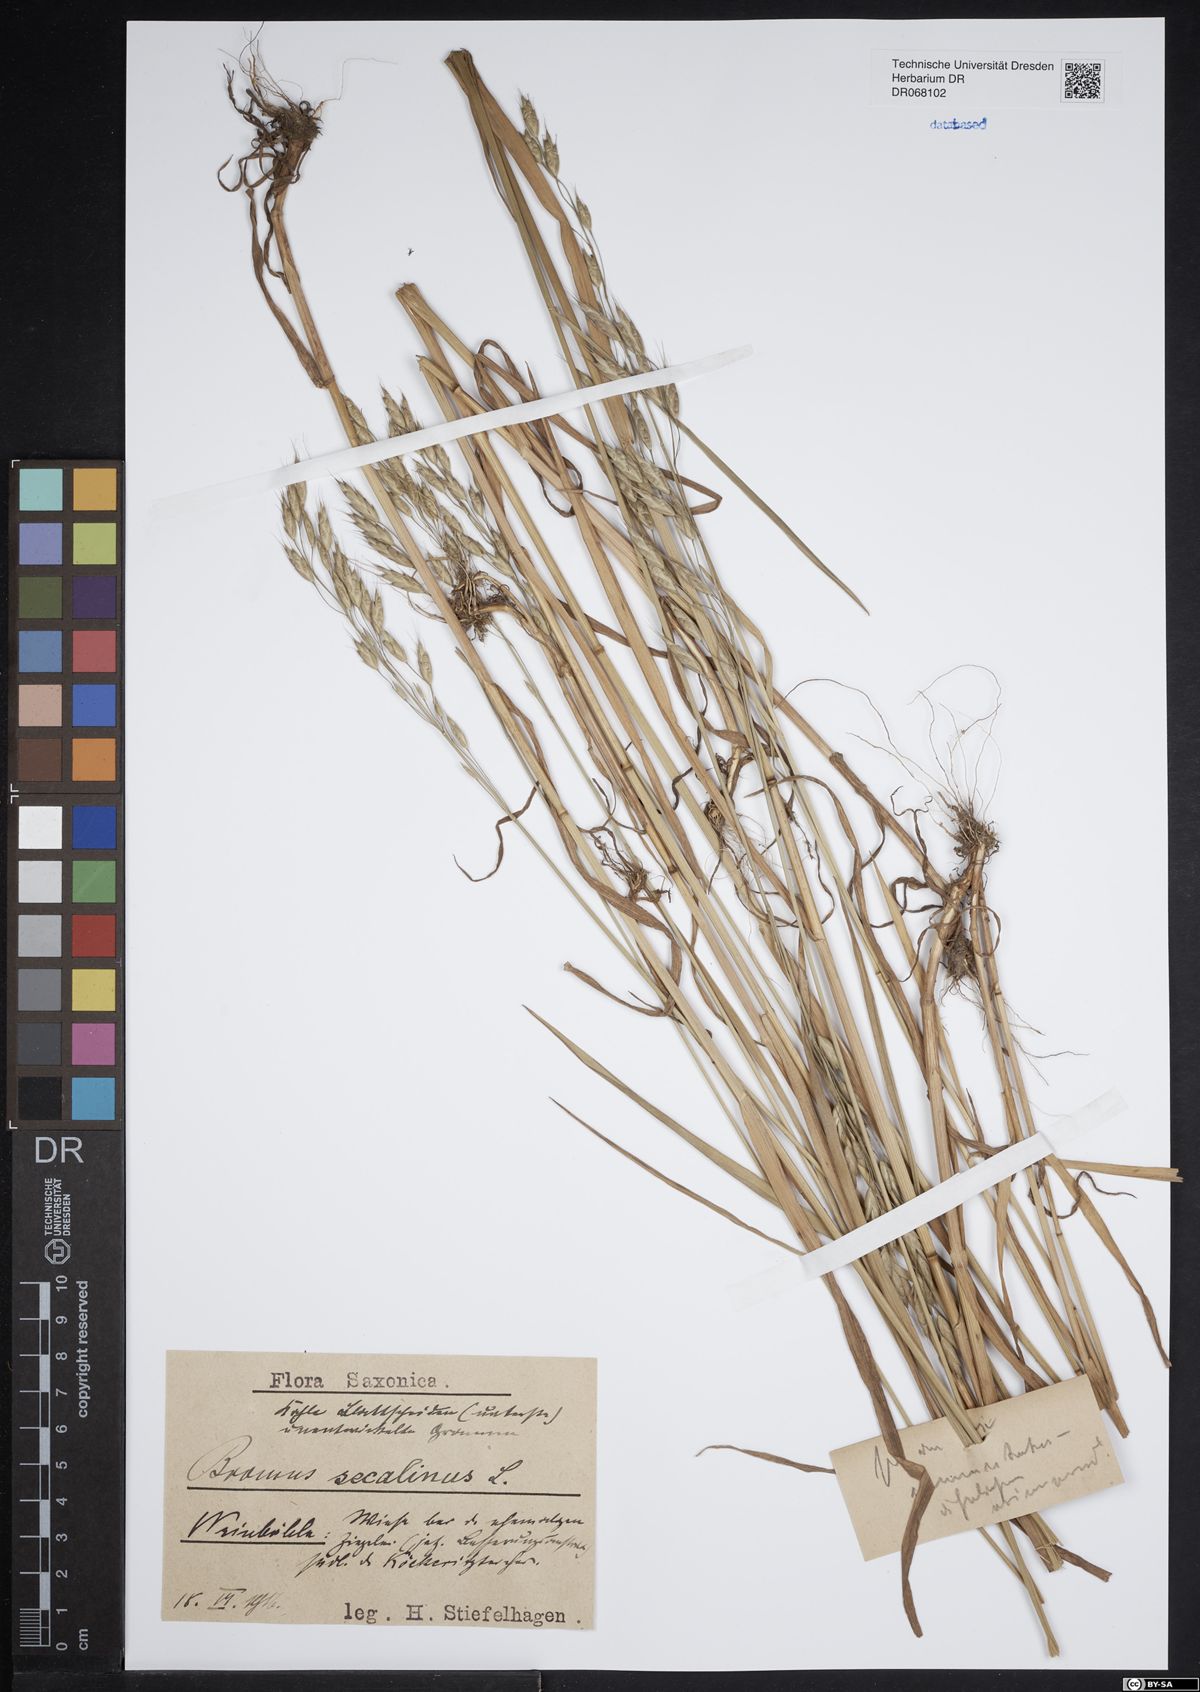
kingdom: Plantae
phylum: Tracheophyta
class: Liliopsida
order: Poales
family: Poaceae
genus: Bromus
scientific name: Bromus secalinus
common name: Rye brome
